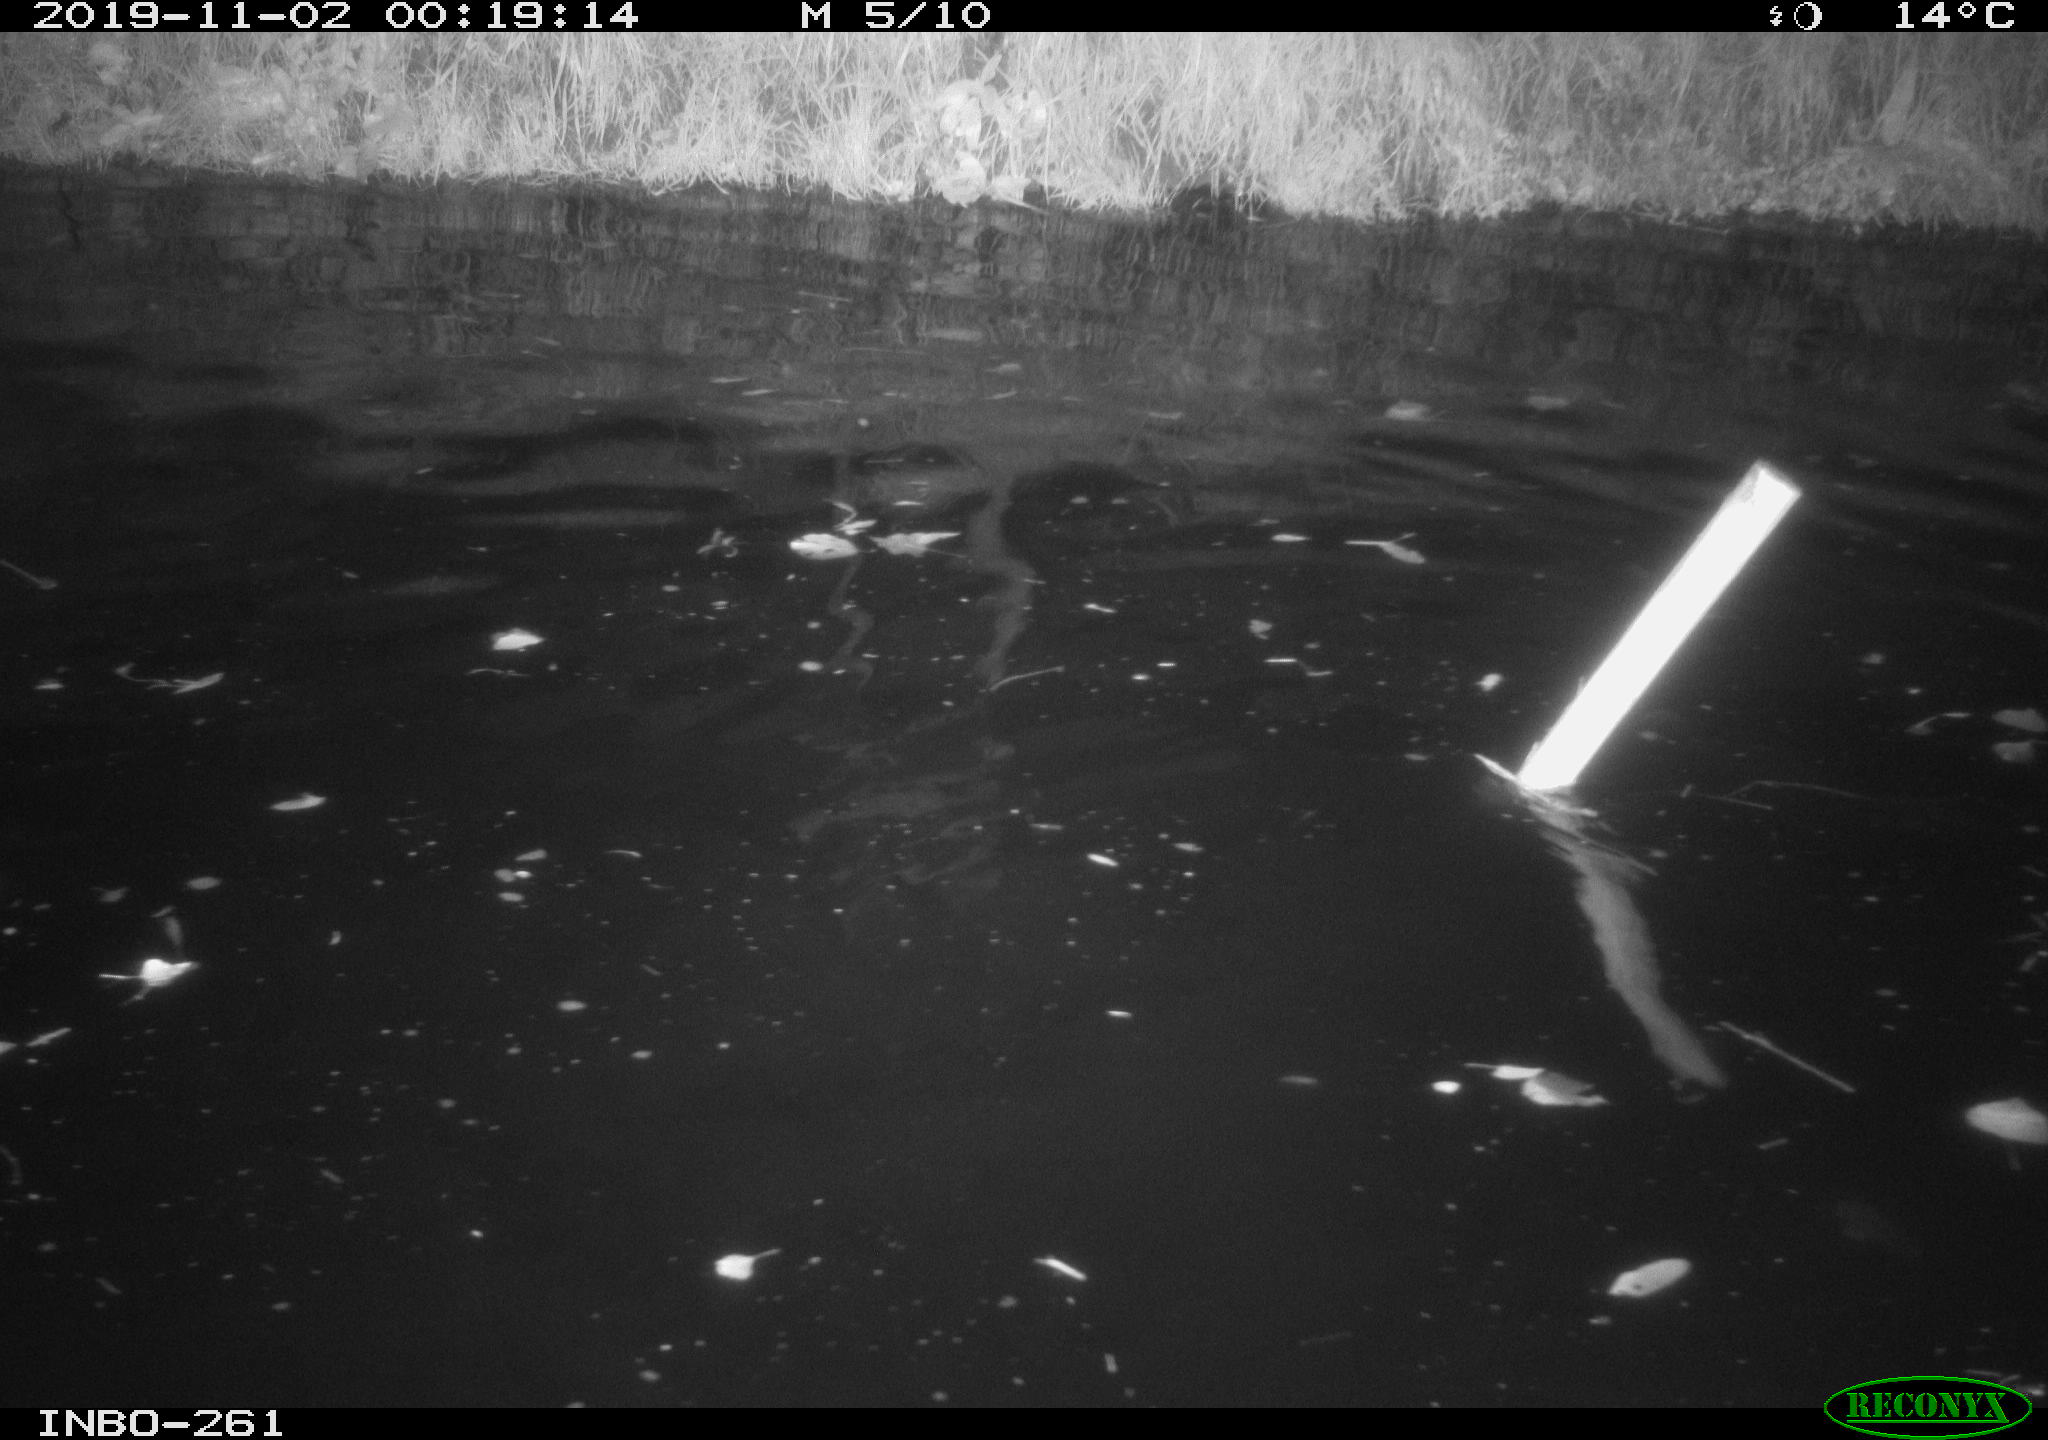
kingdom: Animalia
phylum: Chordata
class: Aves
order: Anseriformes
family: Anatidae
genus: Anas
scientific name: Anas platyrhynchos
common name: Mallard
